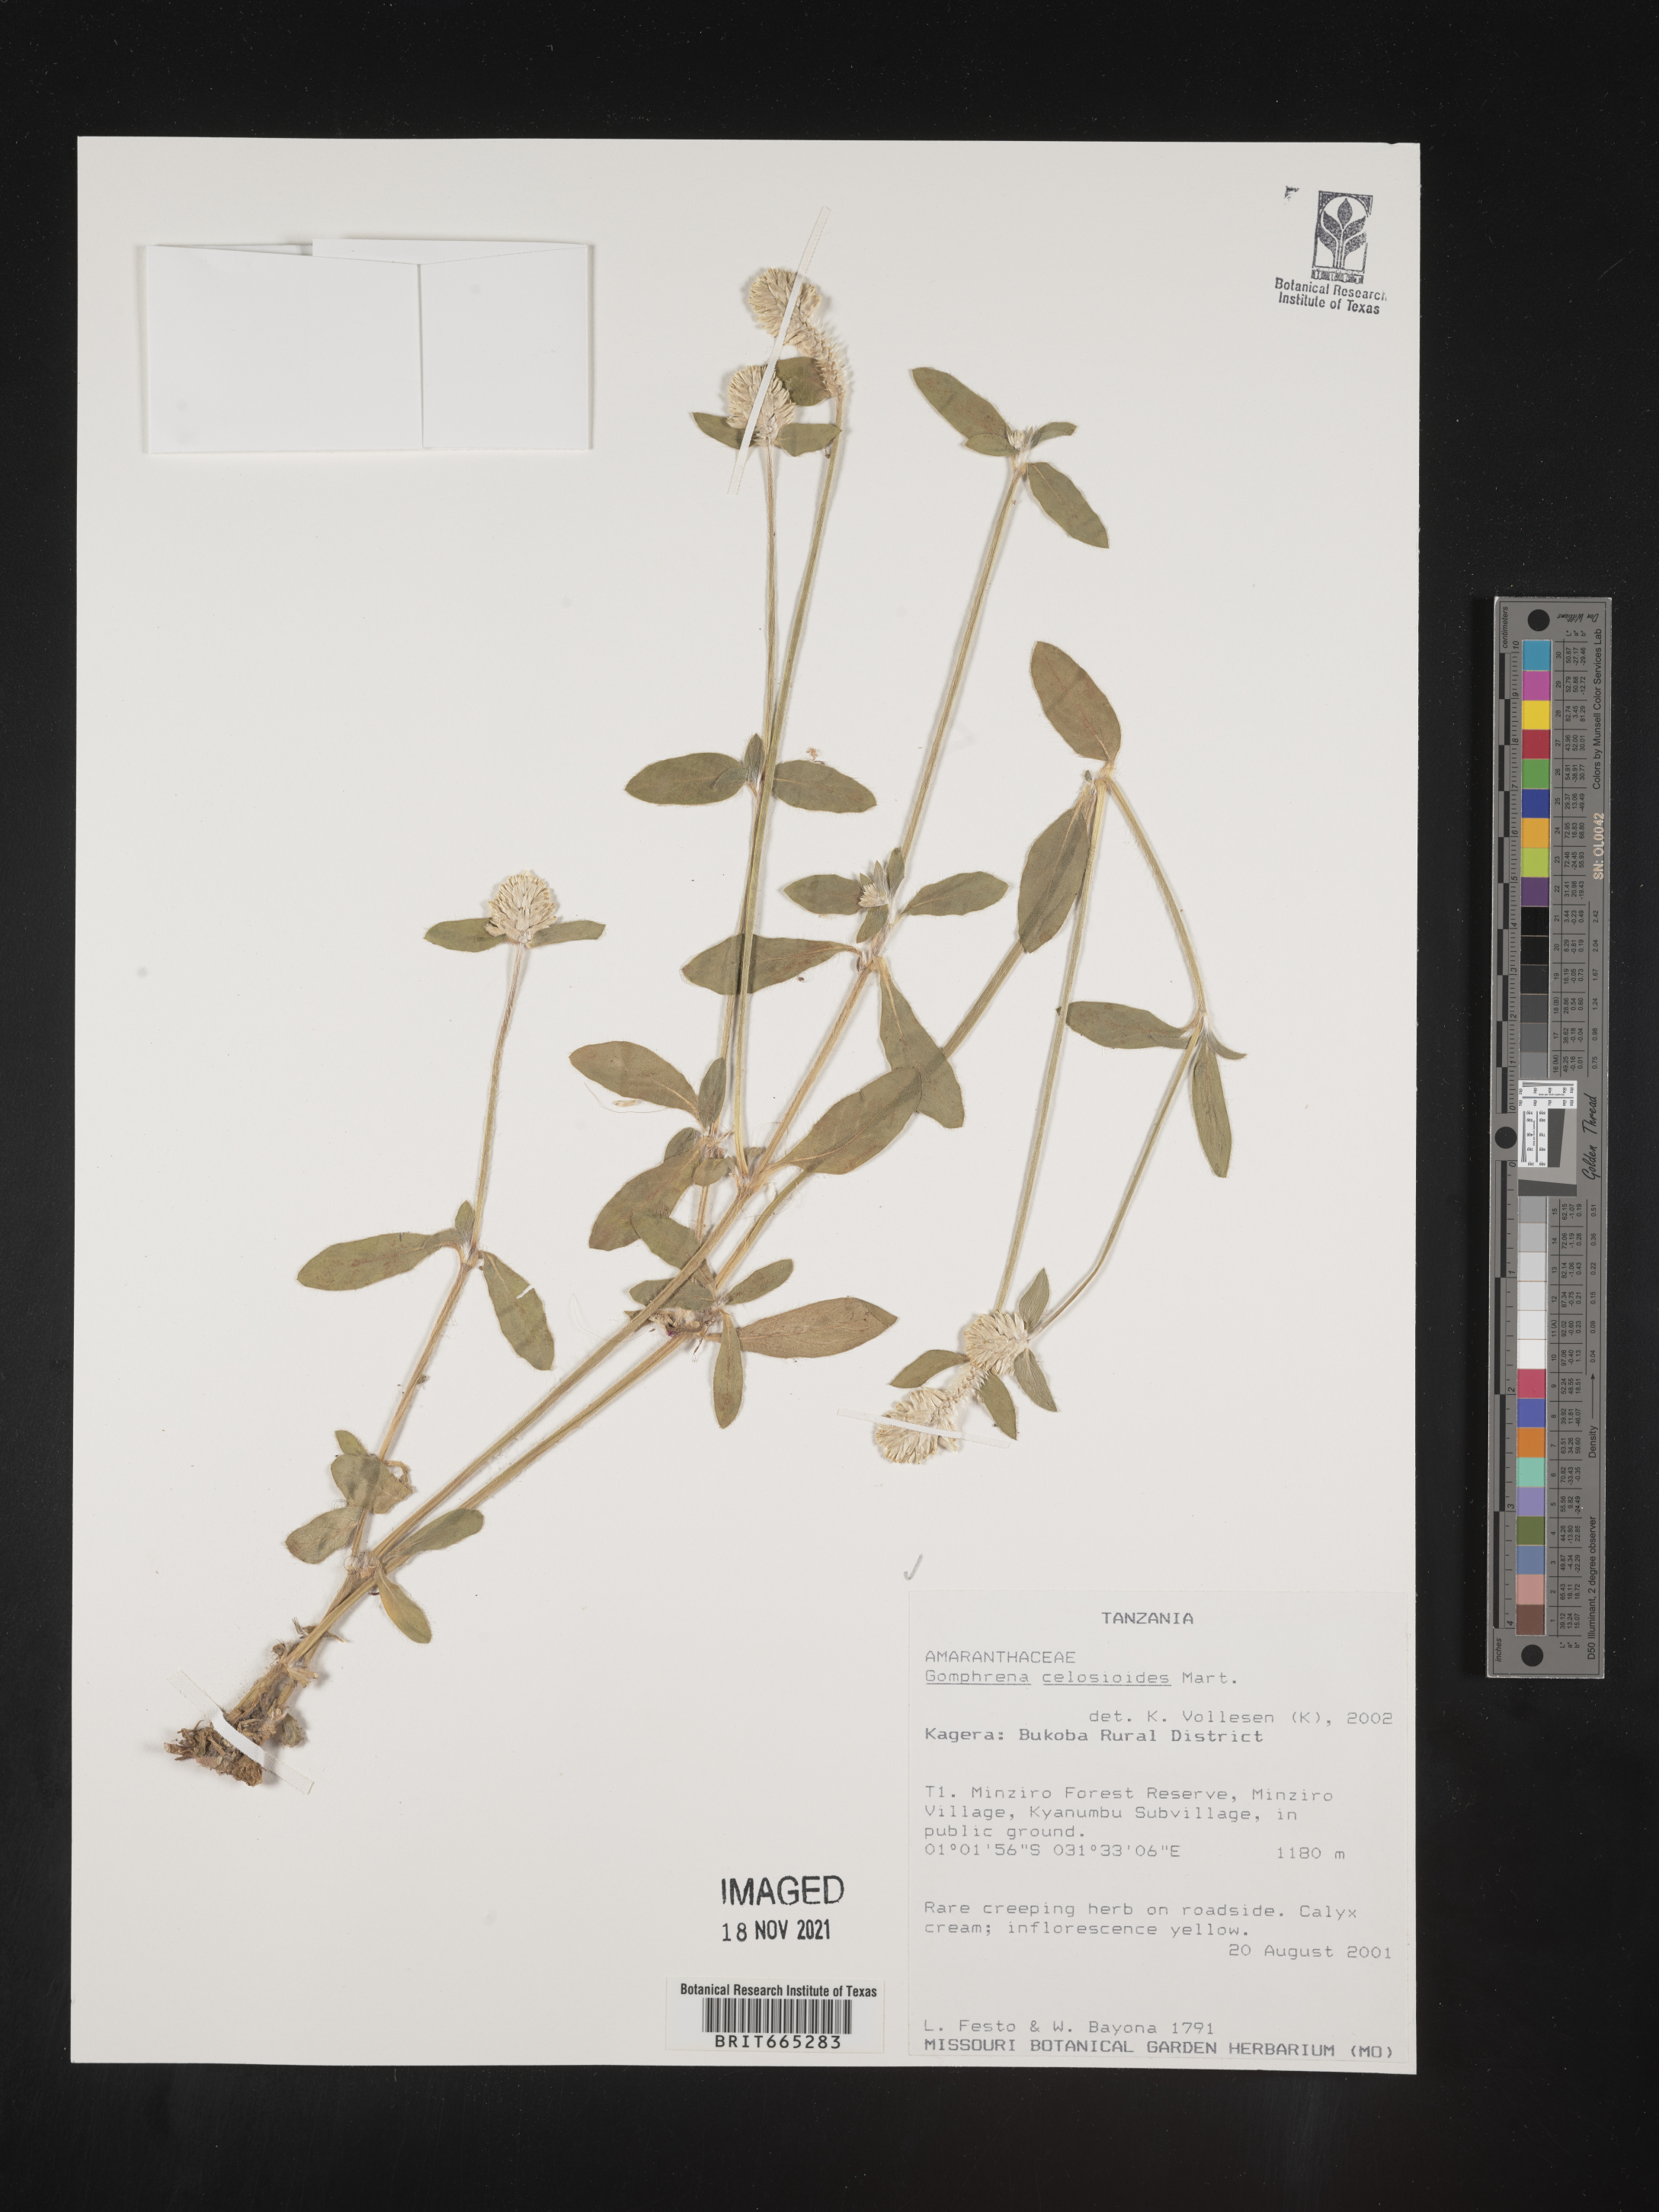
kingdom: Plantae
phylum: Tracheophyta
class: Magnoliopsida
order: Caryophyllales
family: Amaranthaceae
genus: Gomphrena
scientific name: Gomphrena
